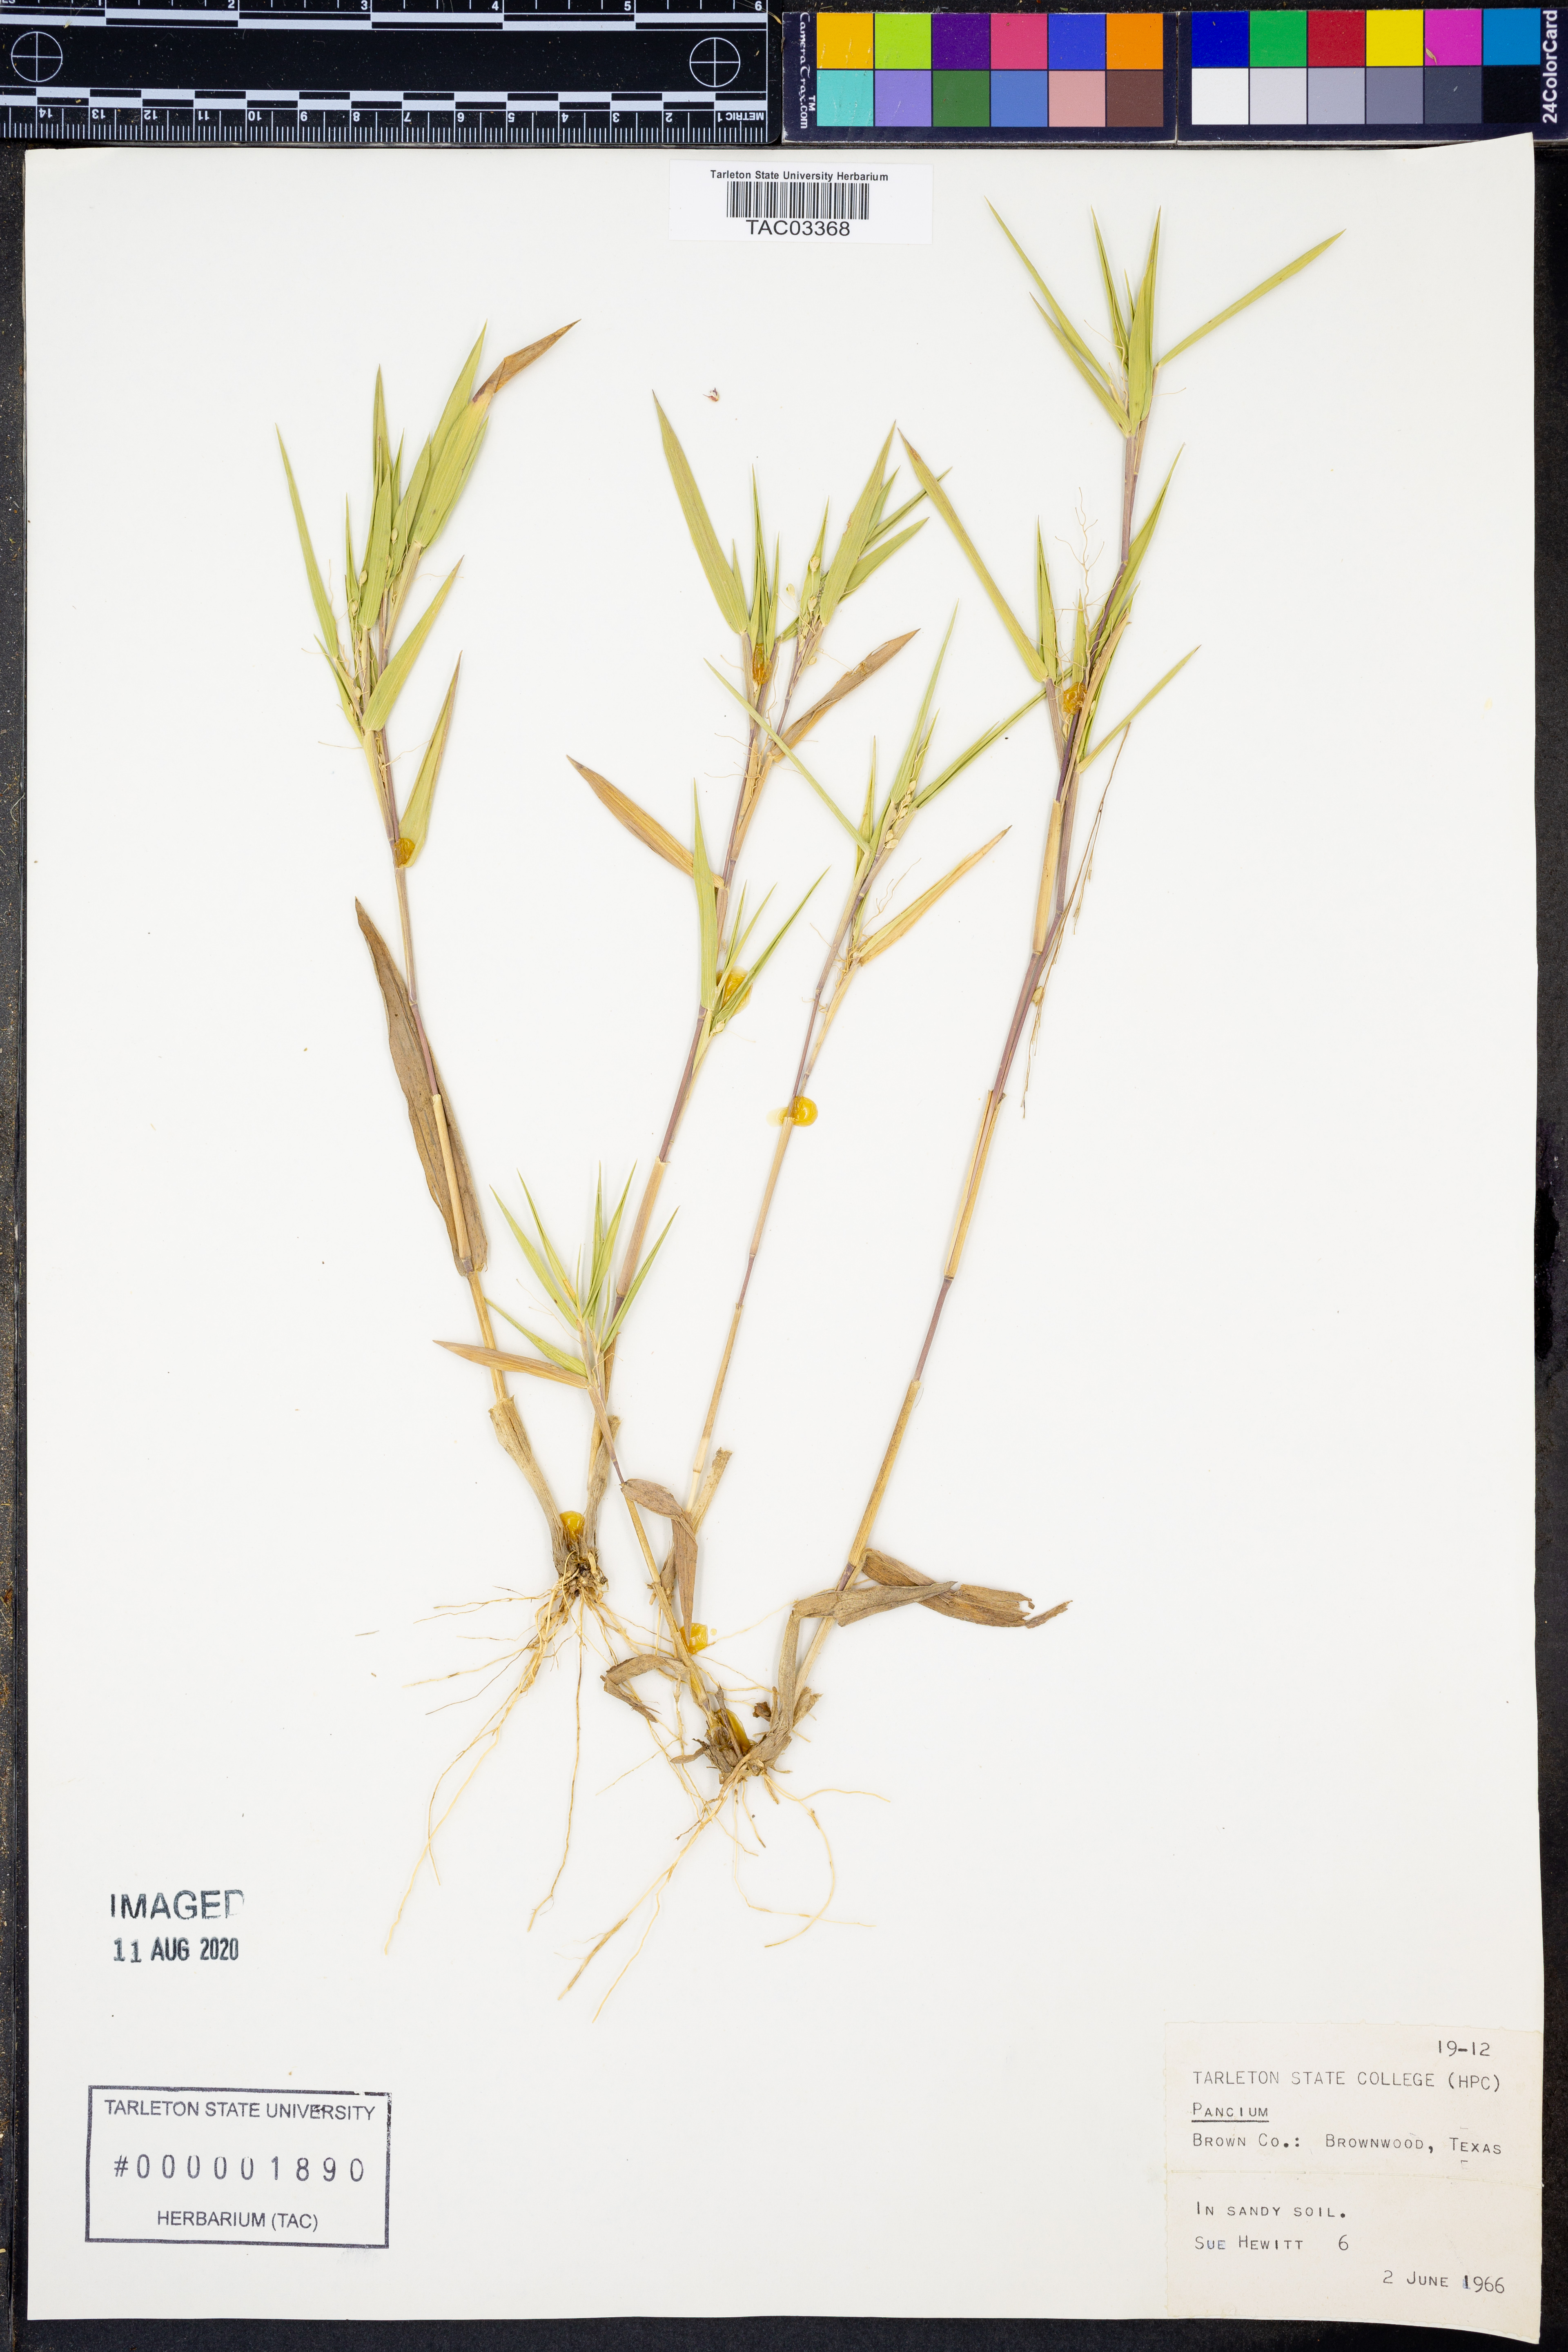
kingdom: Plantae
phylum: Tracheophyta
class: Liliopsida
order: Poales
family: Poaceae
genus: Panicum
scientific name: Panicum
